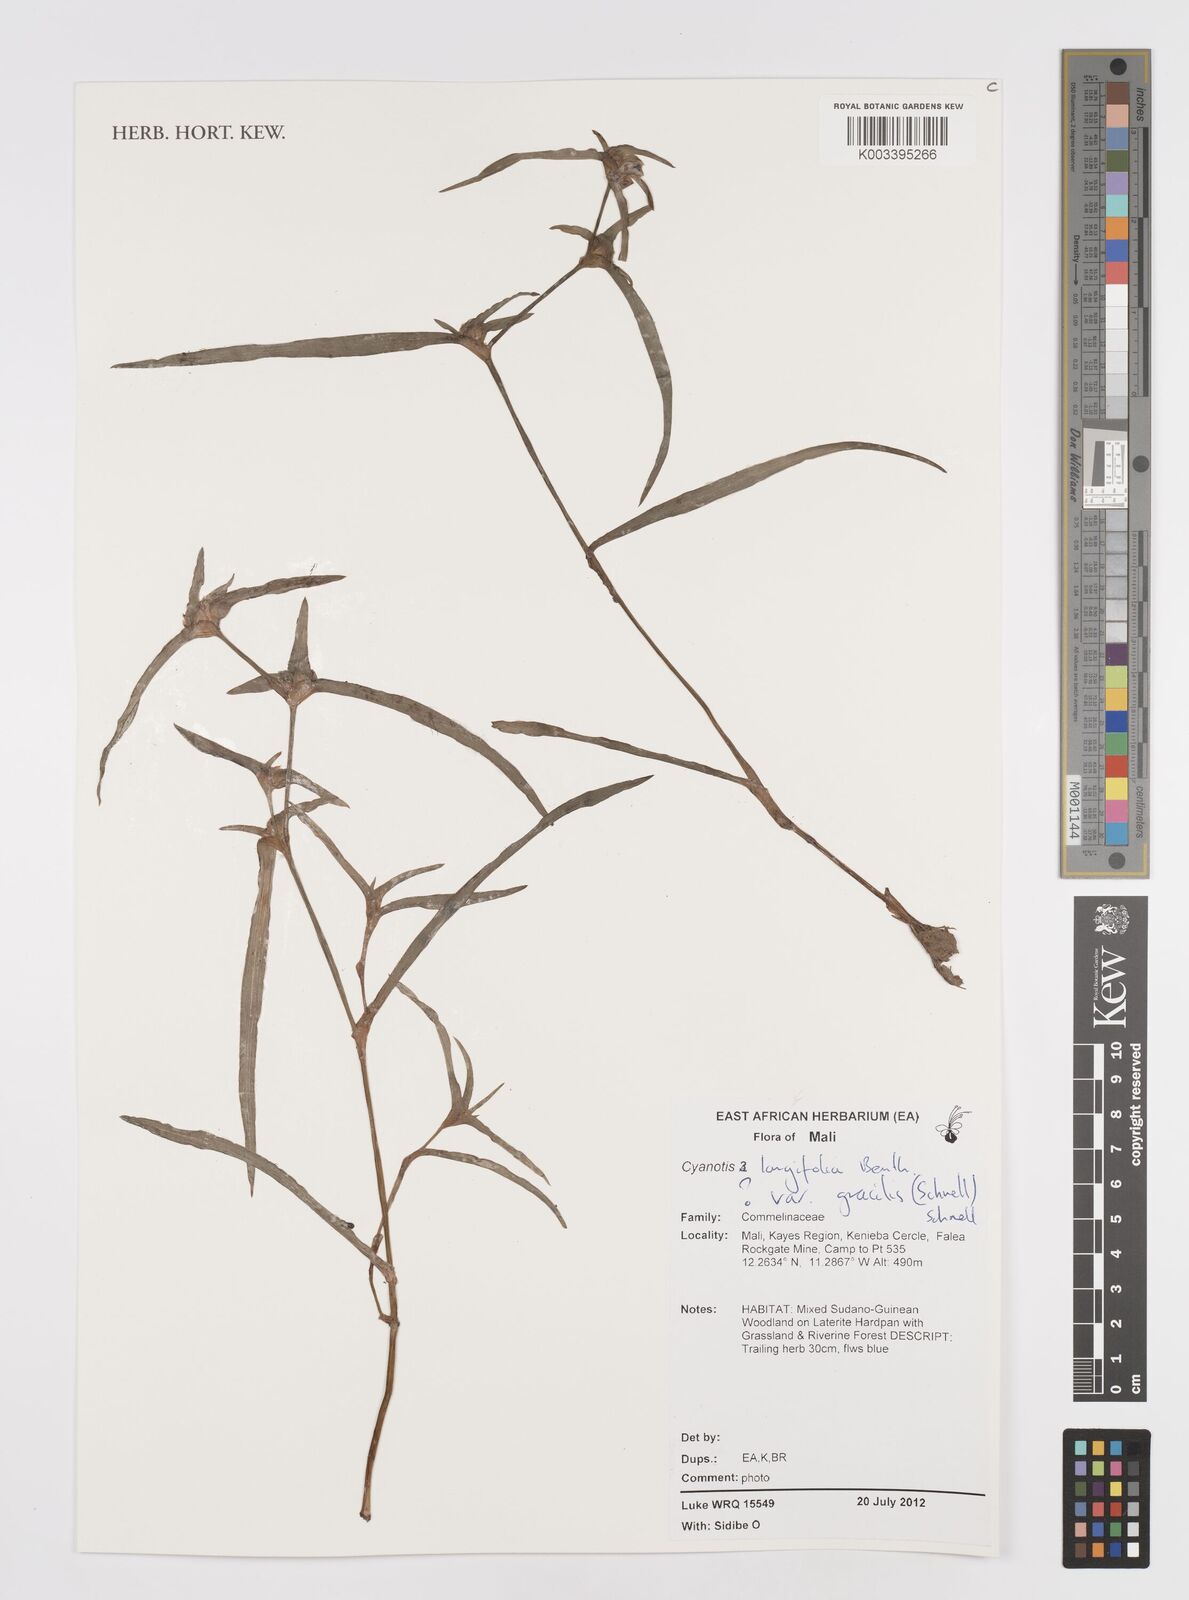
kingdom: Plantae
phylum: Tracheophyta
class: Liliopsida
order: Commelinales
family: Commelinaceae
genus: Cyanotis
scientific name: Cyanotis longifolia
